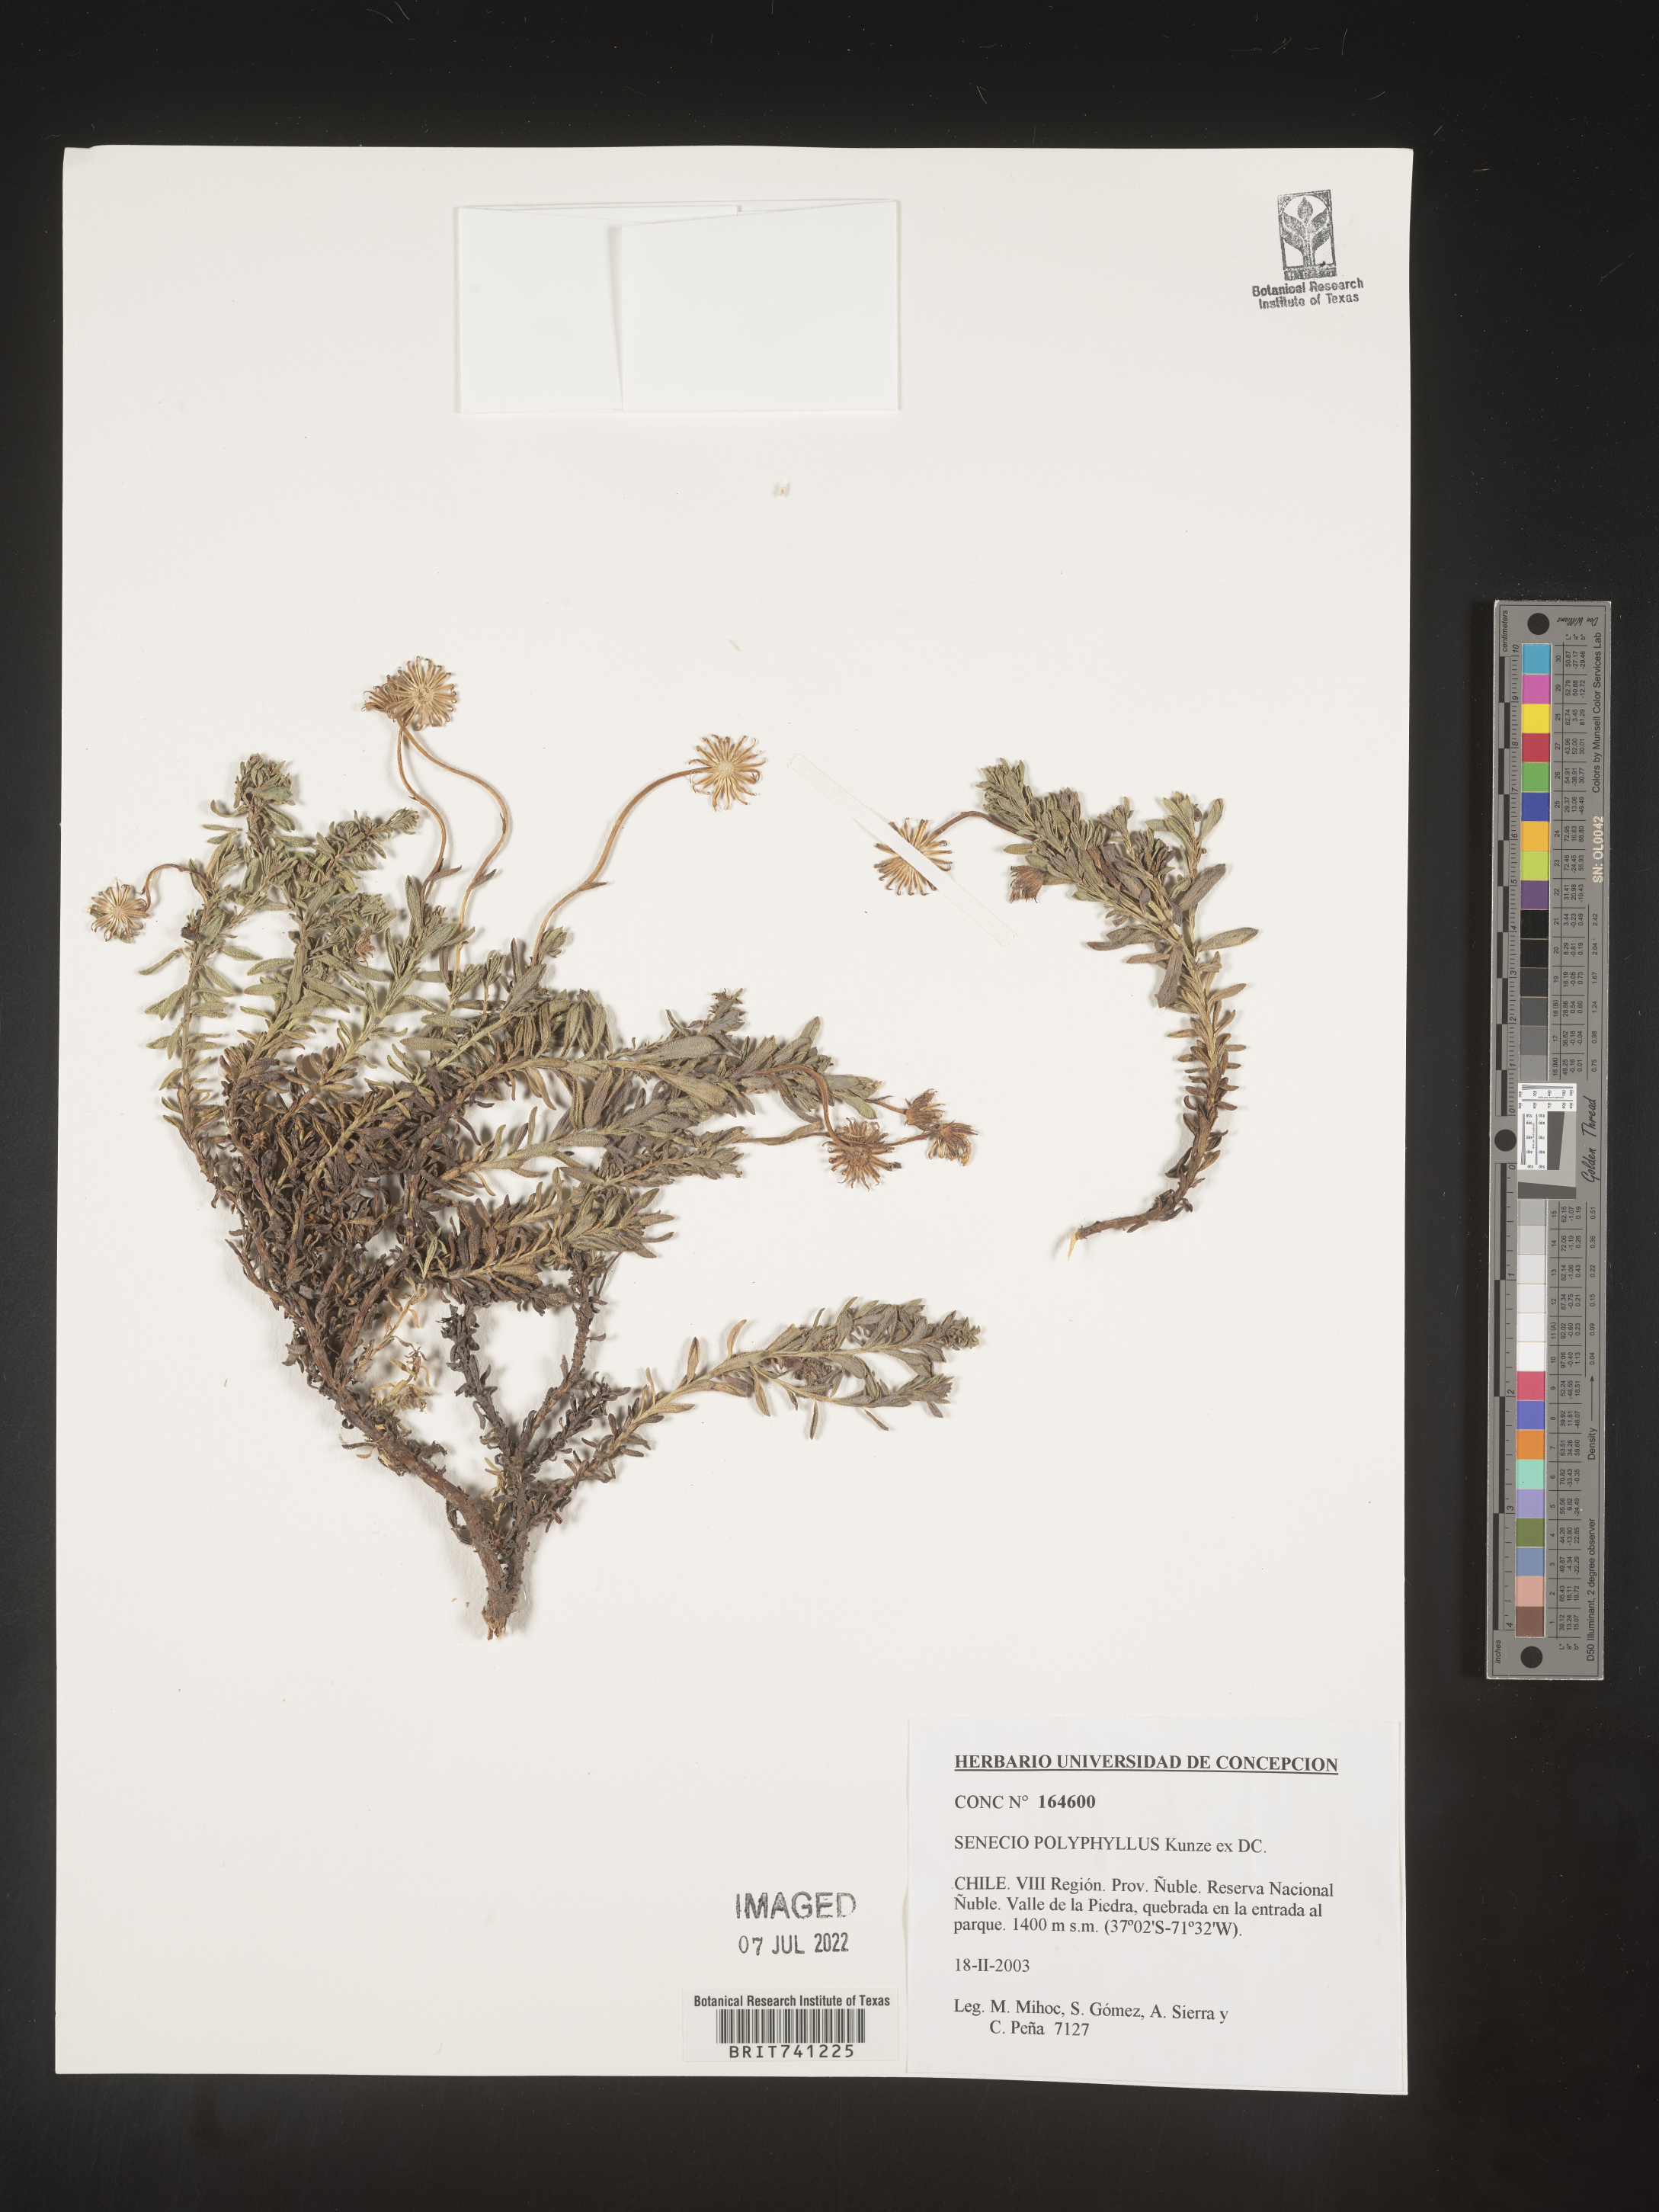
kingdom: Plantae
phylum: Tracheophyta
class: Magnoliopsida
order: Asterales
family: Asteraceae
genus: Senecio
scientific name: Senecio
